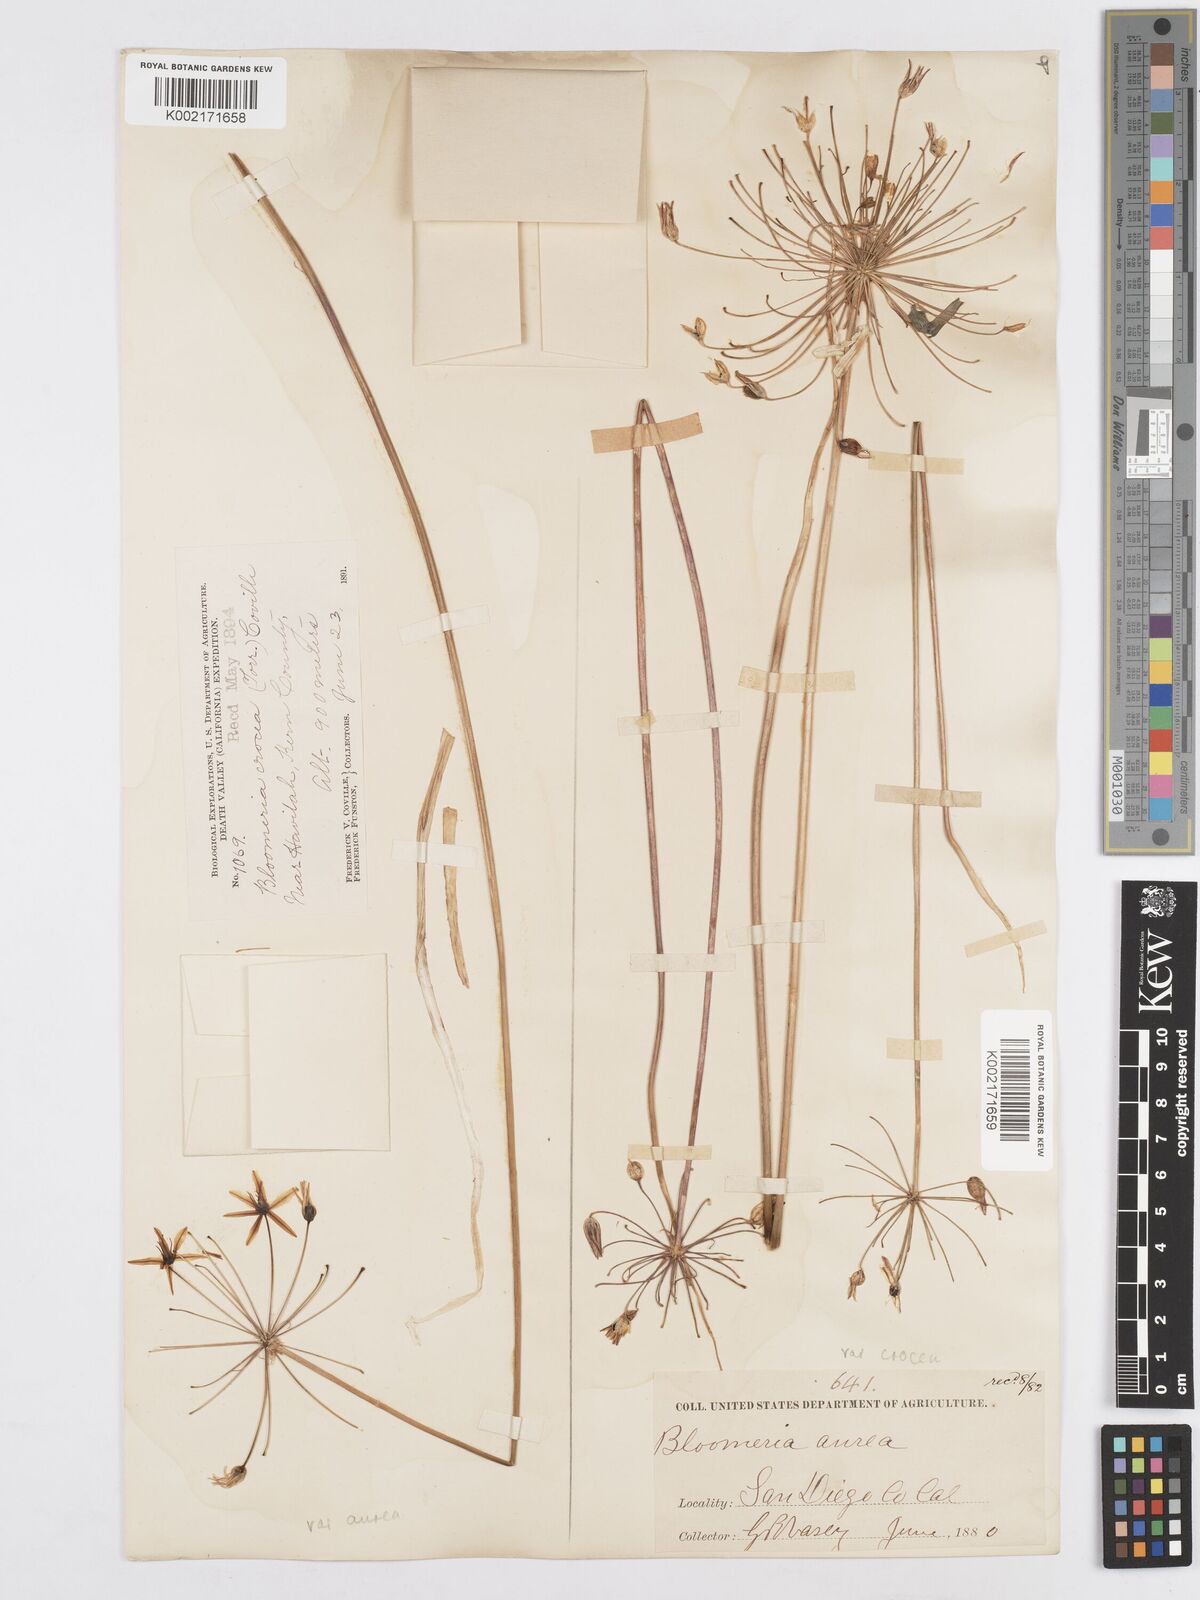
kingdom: Plantae
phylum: Tracheophyta
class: Liliopsida
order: Asparagales
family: Asparagaceae
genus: Bloomeria
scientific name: Bloomeria crocea
